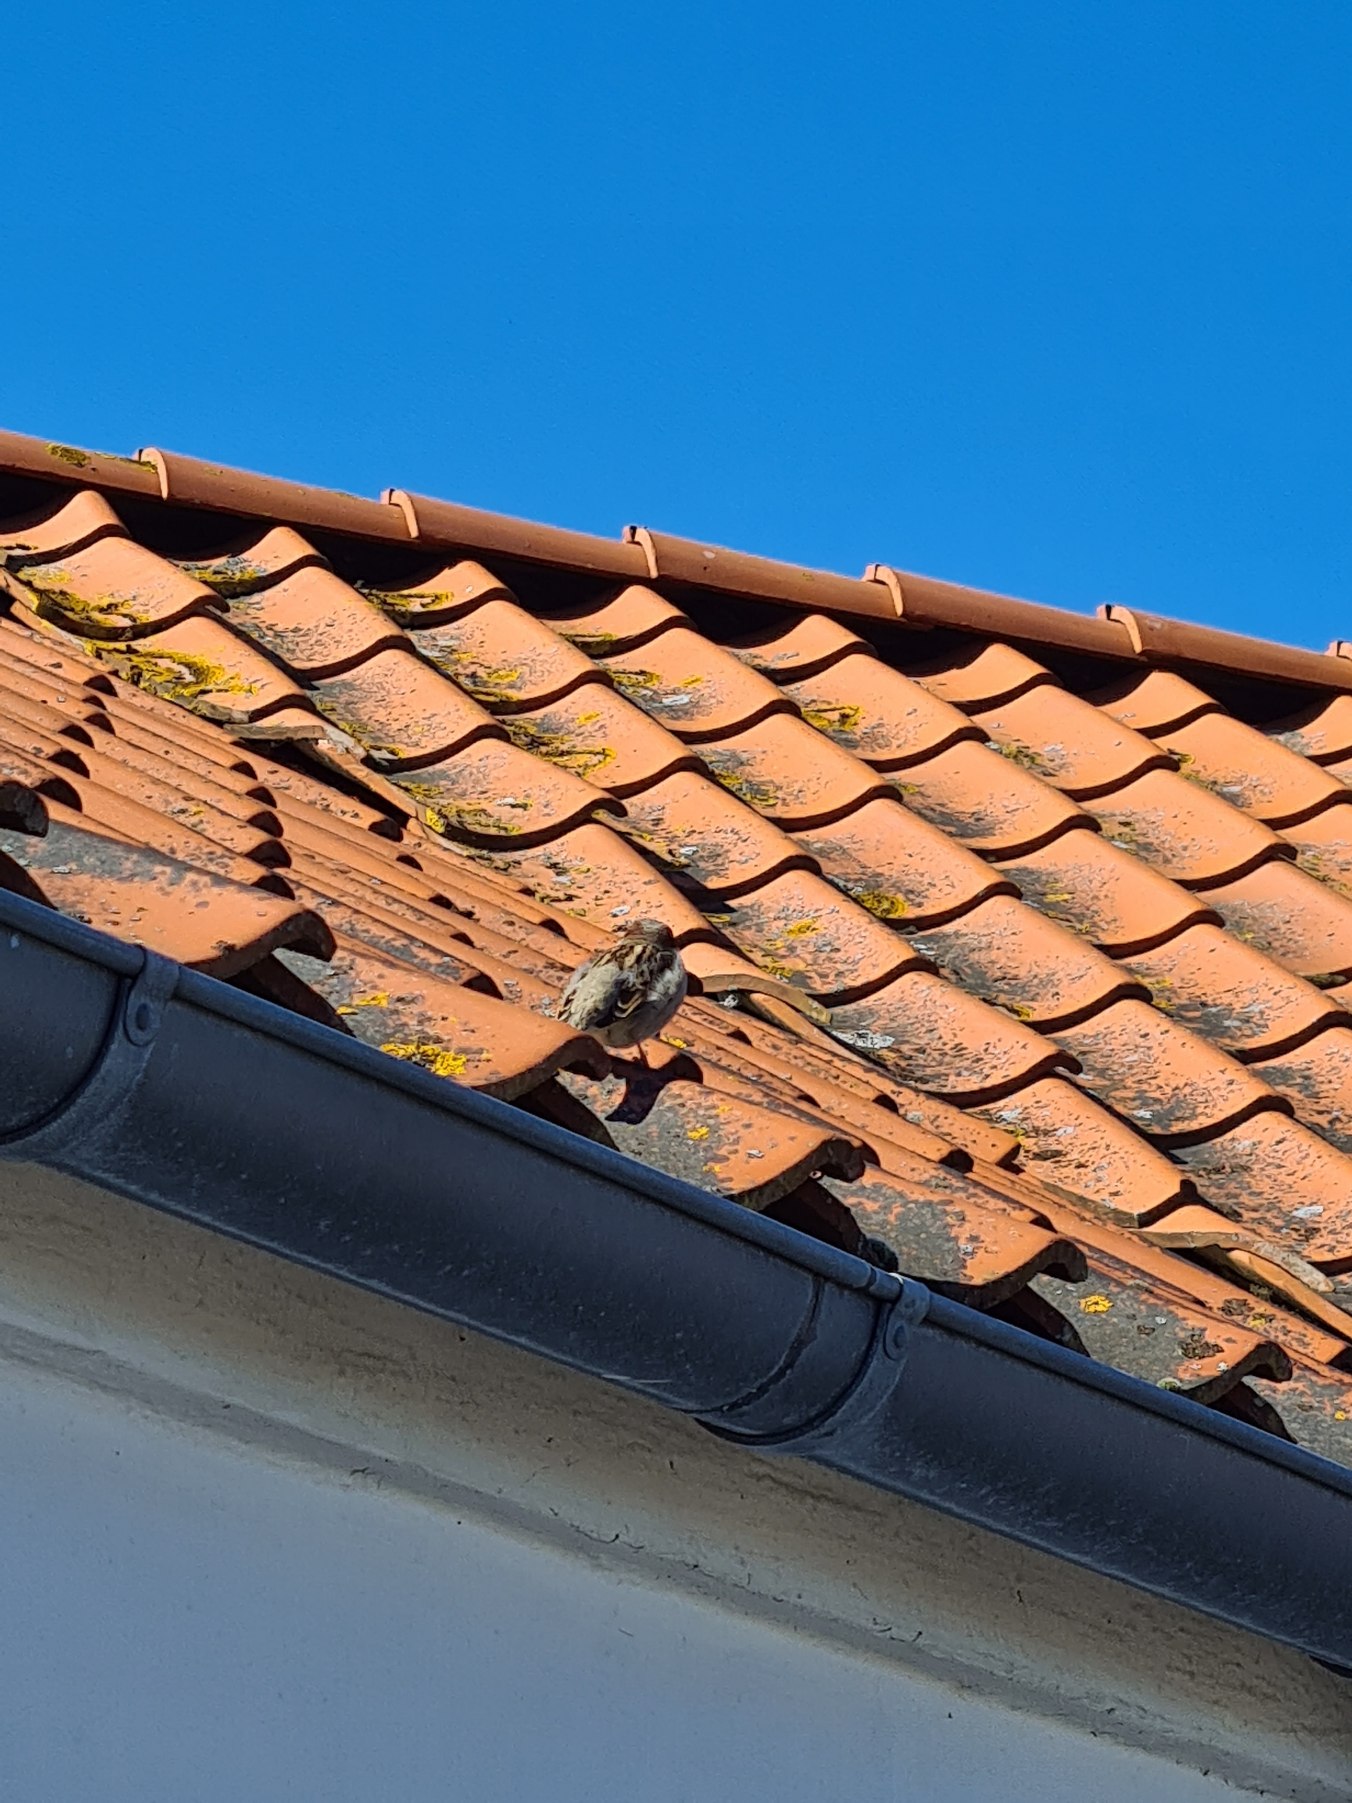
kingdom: Animalia
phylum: Chordata
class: Aves
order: Passeriformes
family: Passeridae
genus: Passer
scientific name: Passer domesticus
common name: Gråspurv
